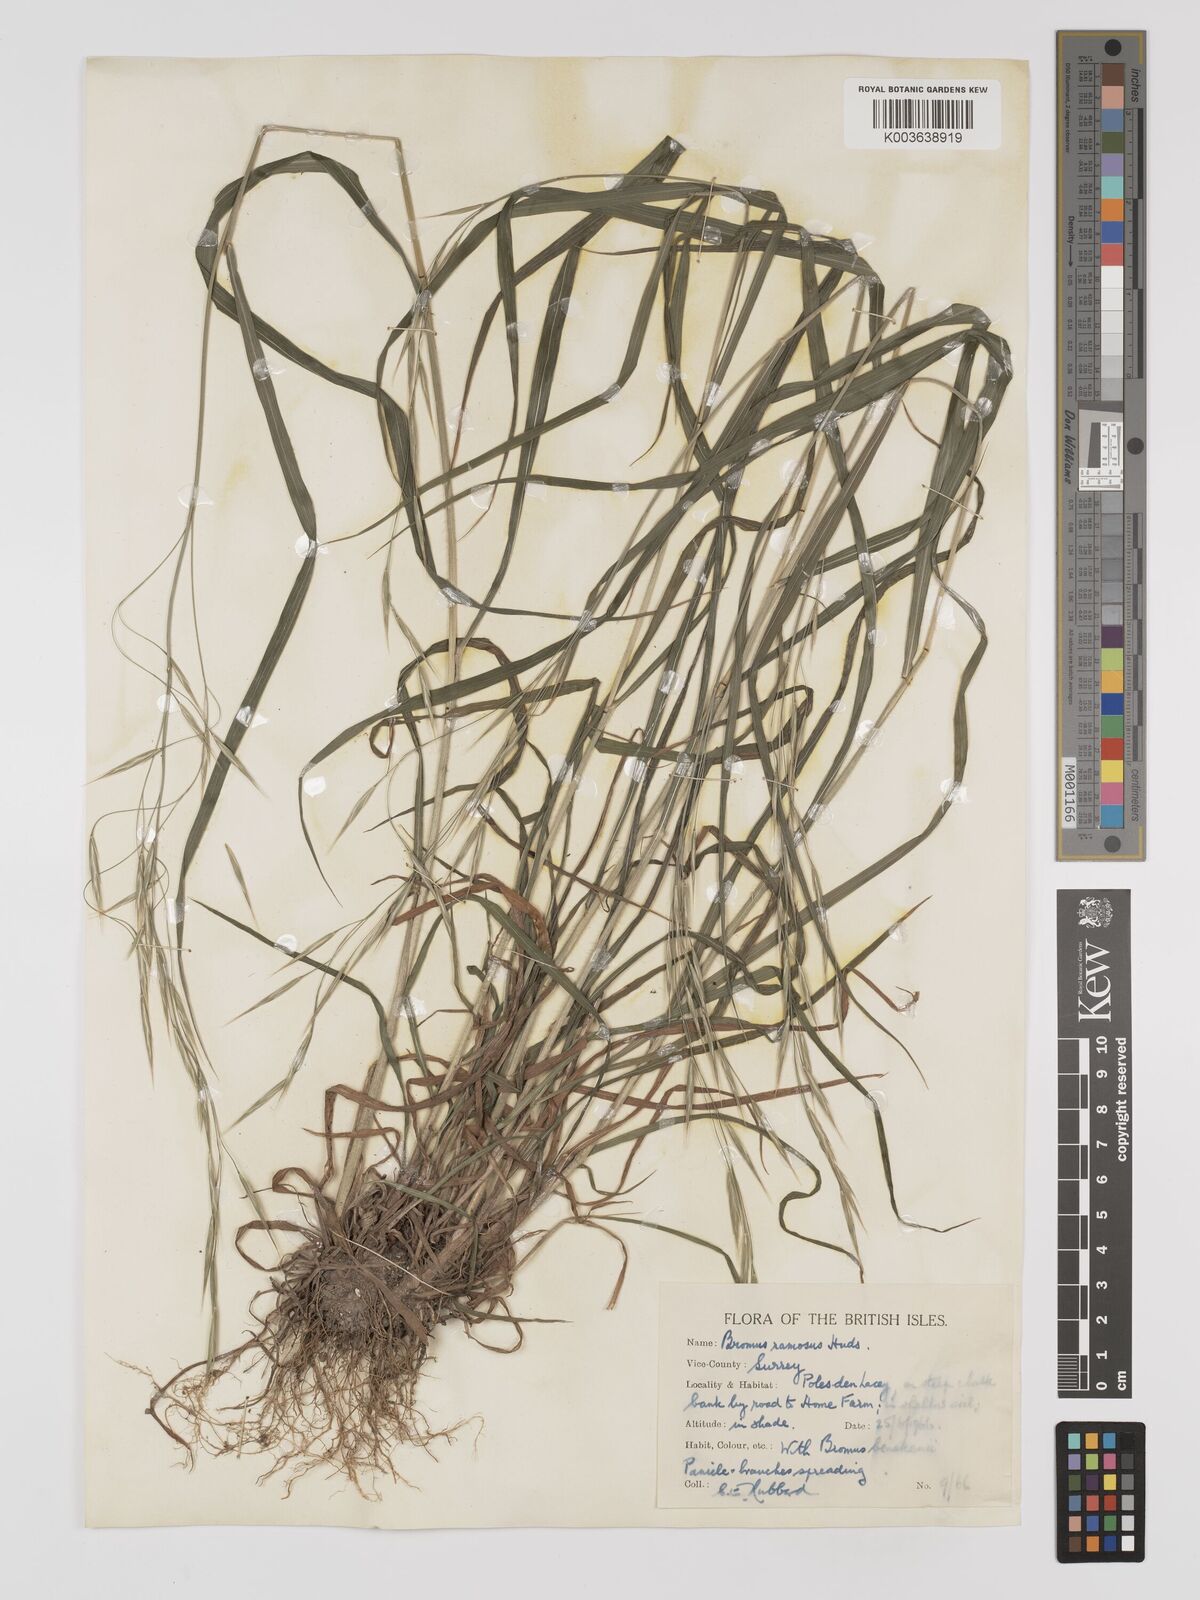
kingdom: Plantae
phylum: Tracheophyta
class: Liliopsida
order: Poales
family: Poaceae
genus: Bromus
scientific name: Bromus ramosus
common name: Hairy brome
